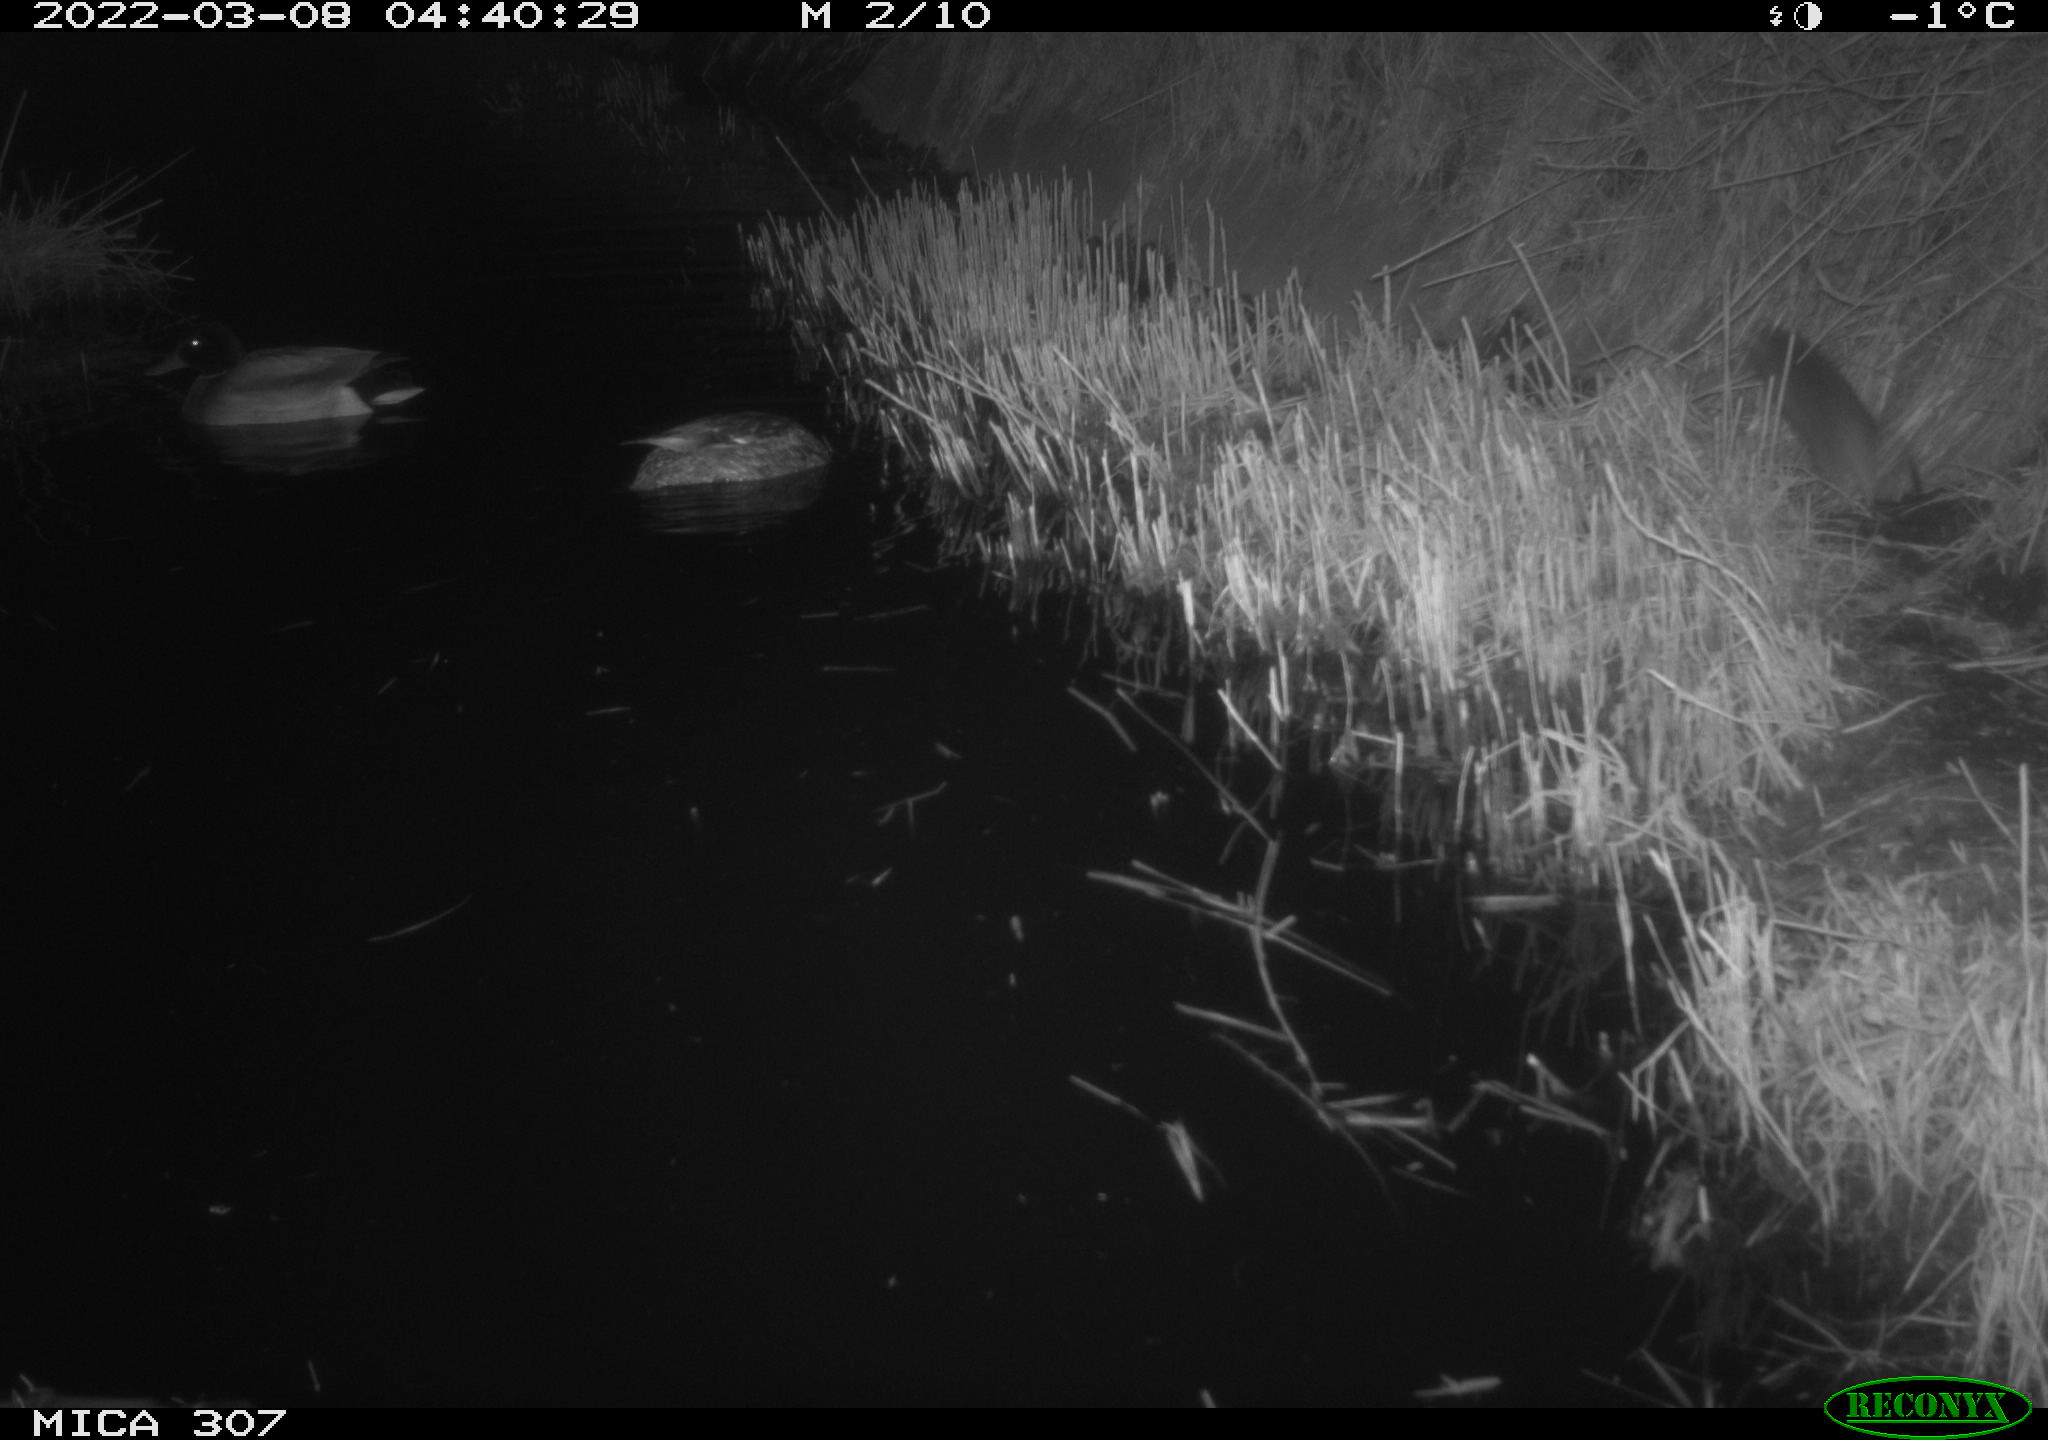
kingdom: Animalia
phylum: Chordata
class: Mammalia
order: Rodentia
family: Muridae
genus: Rattus
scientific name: Rattus norvegicus
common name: Brown rat
